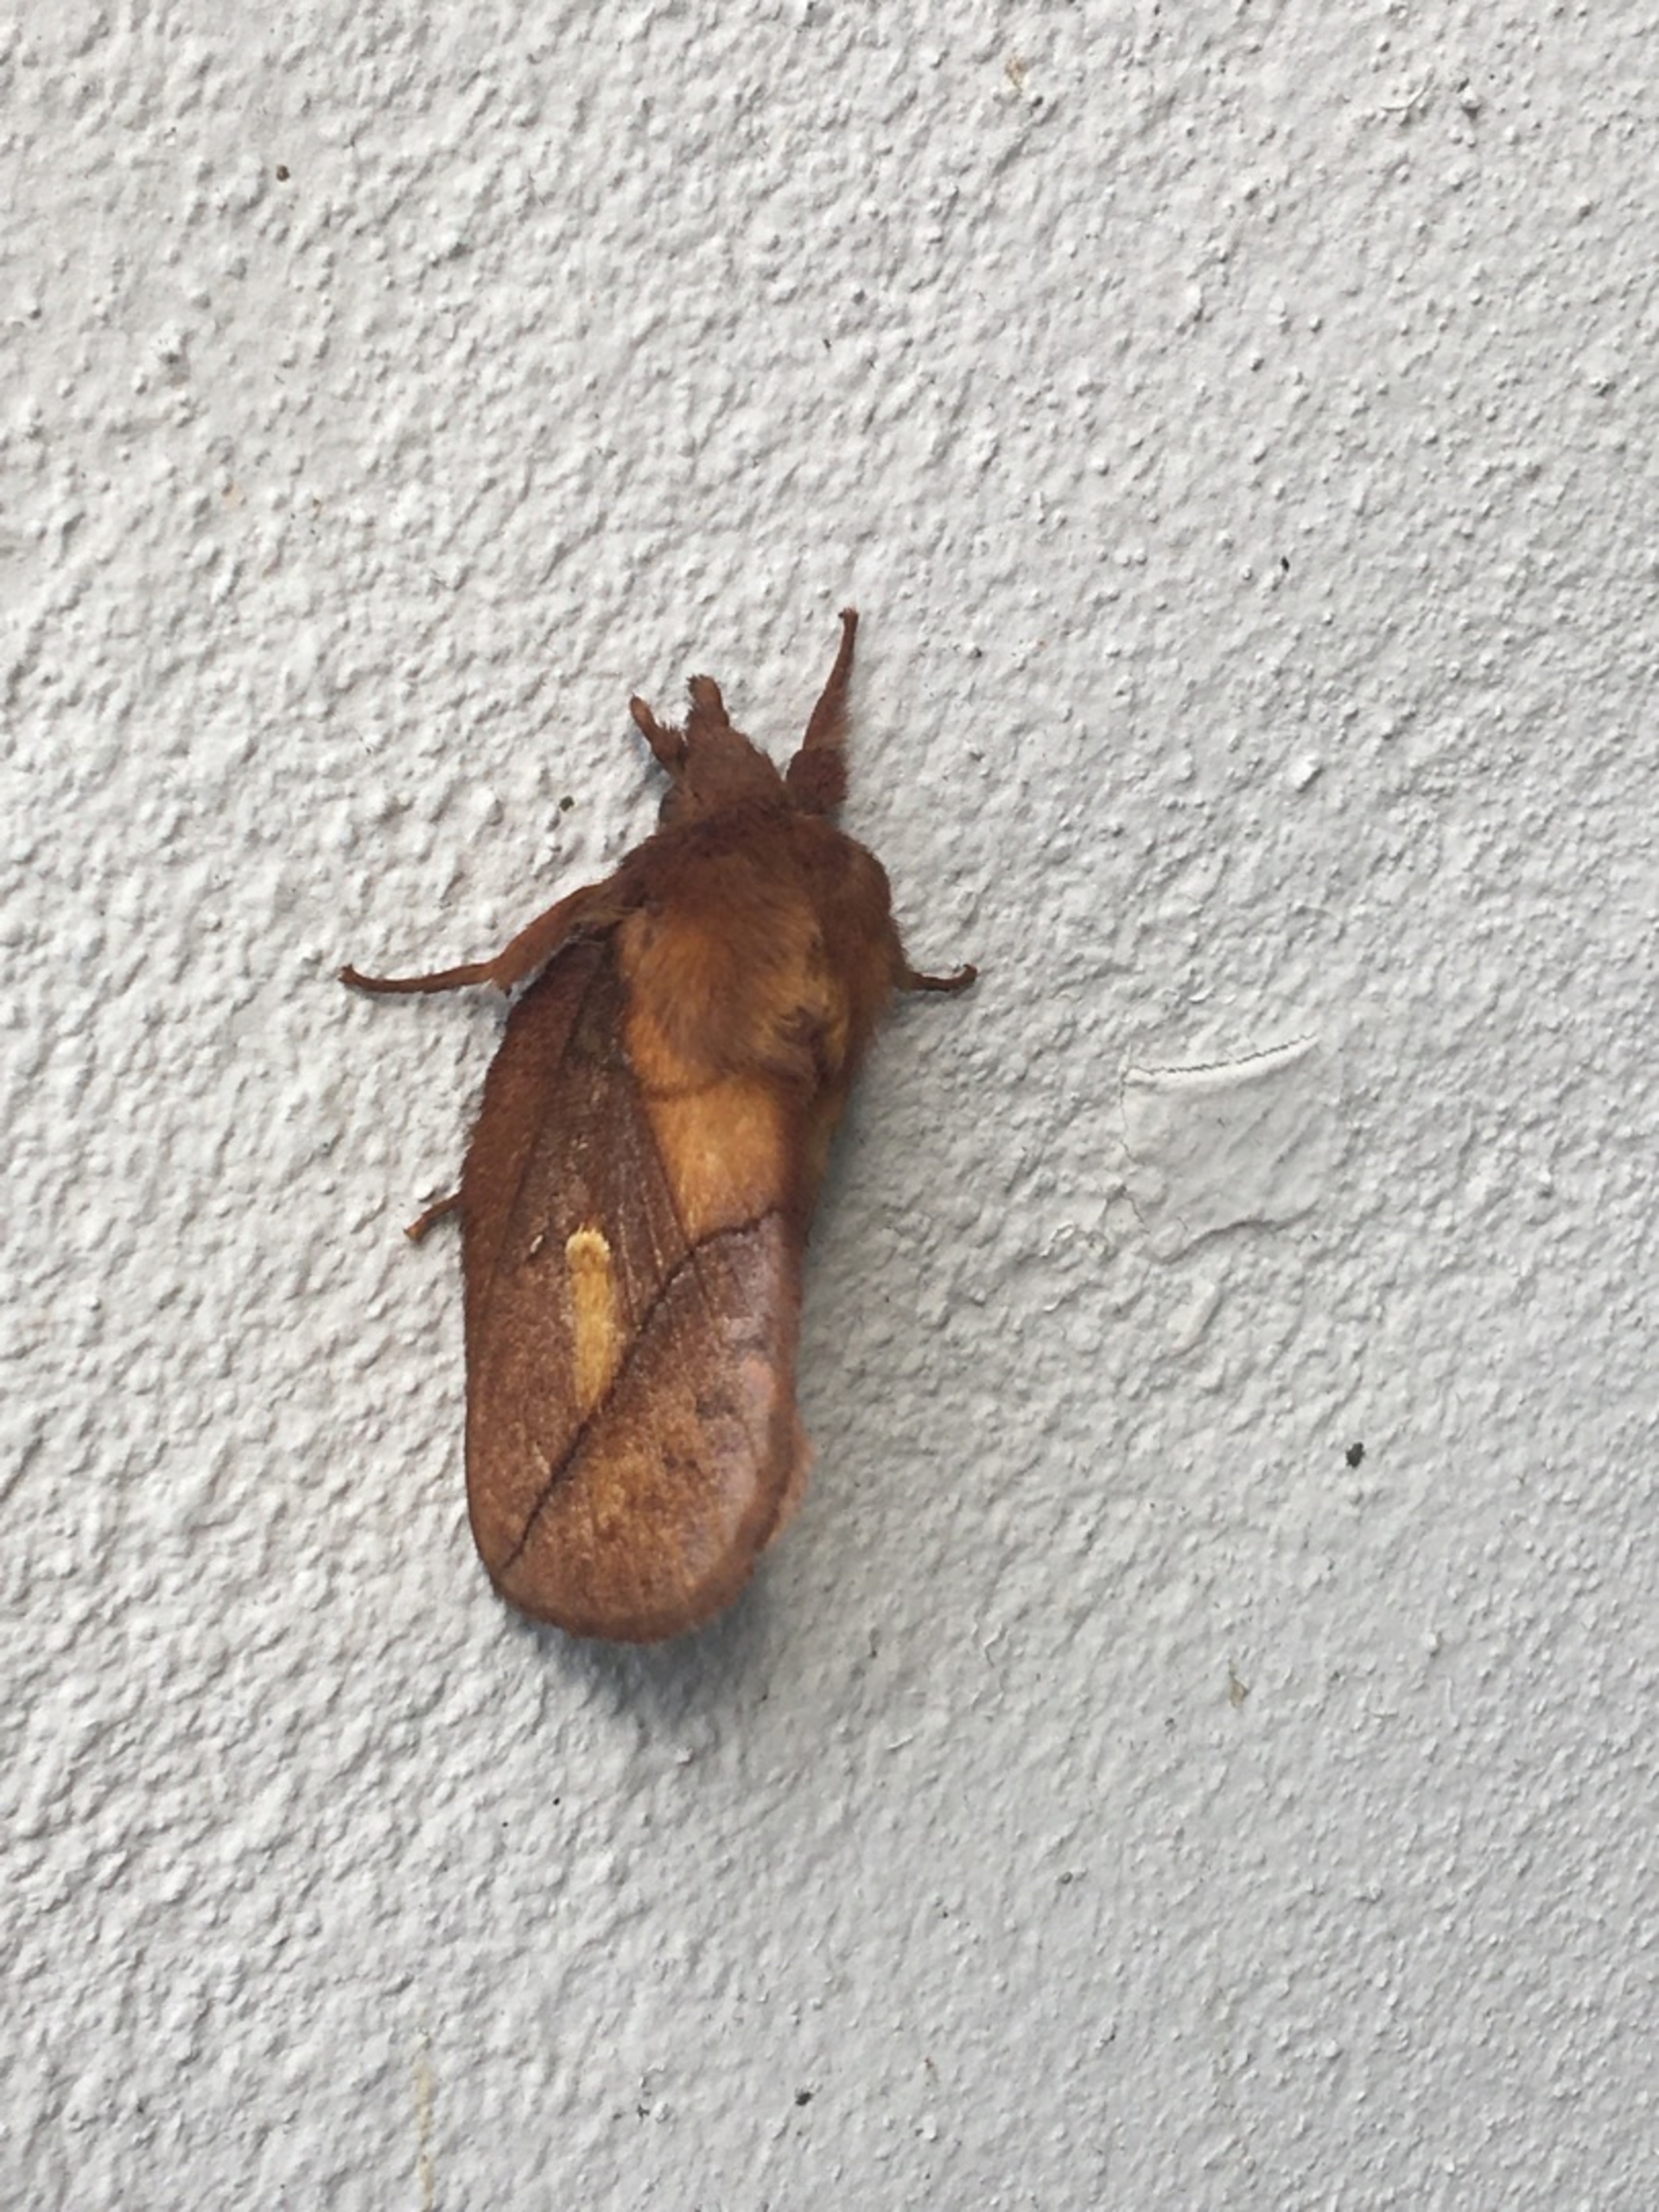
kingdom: Animalia
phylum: Arthropoda
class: Insecta
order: Lepidoptera
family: Lasiocampidae
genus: Euthrix
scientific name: Euthrix potatoria
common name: Græsspinder
